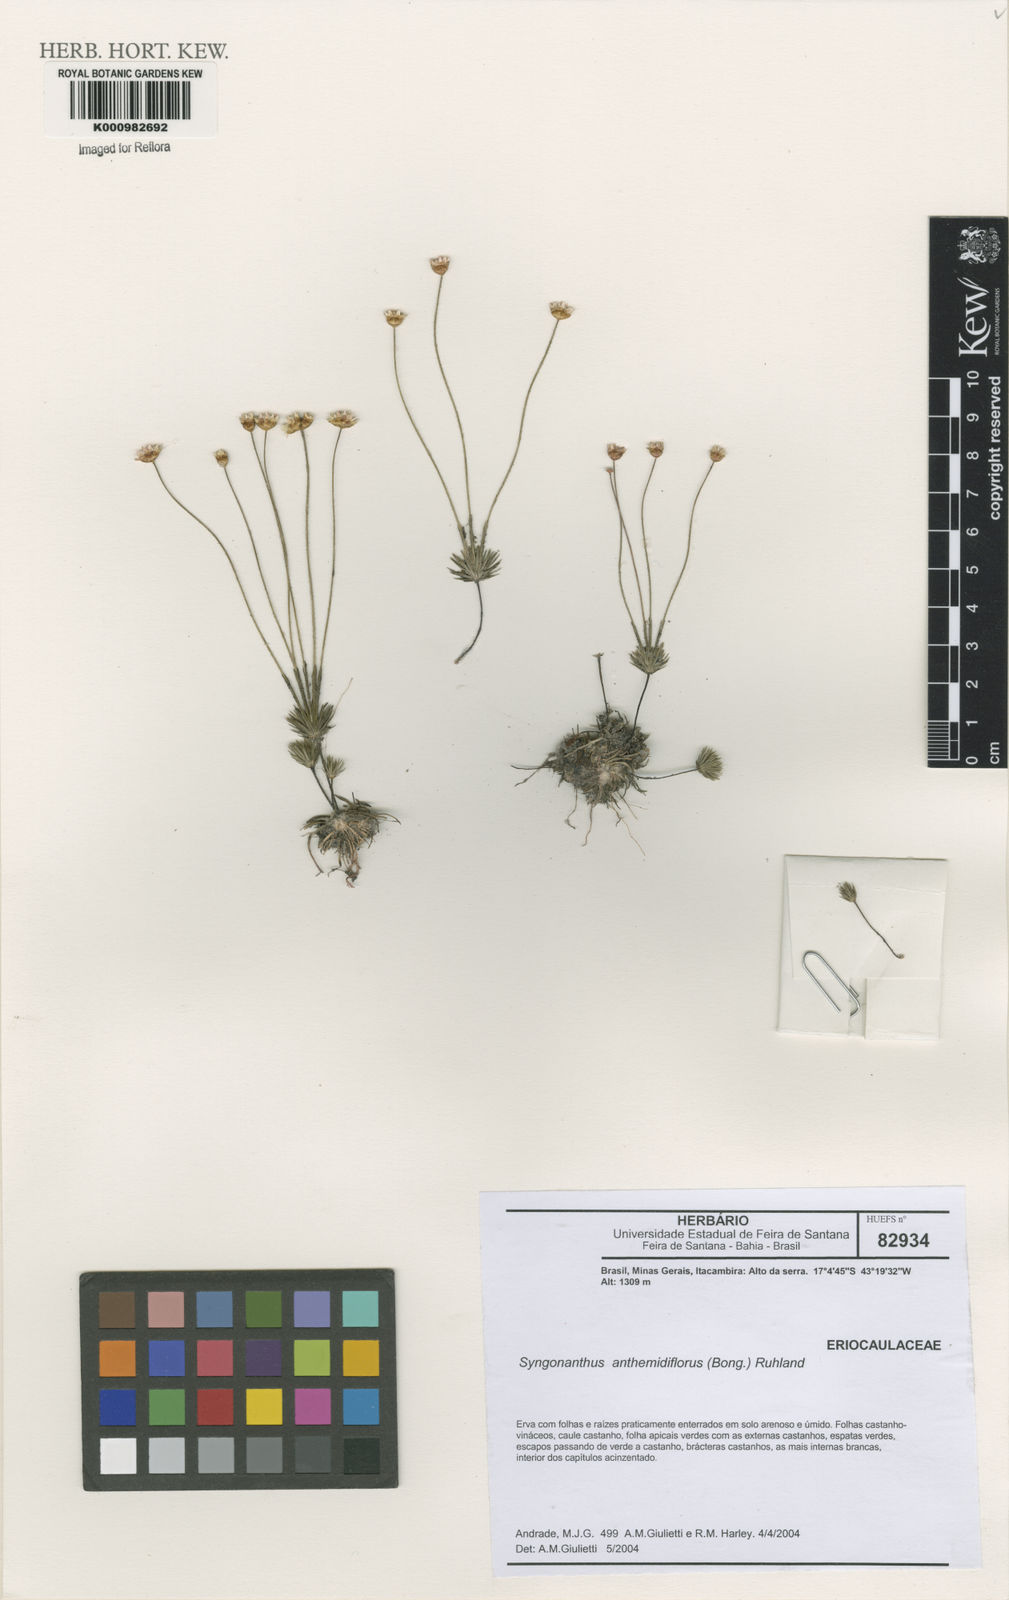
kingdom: Plantae
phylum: Tracheophyta
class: Liliopsida
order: Poales
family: Eriocaulaceae
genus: Syngonanthus
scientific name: Syngonanthus anthemidiflorus
